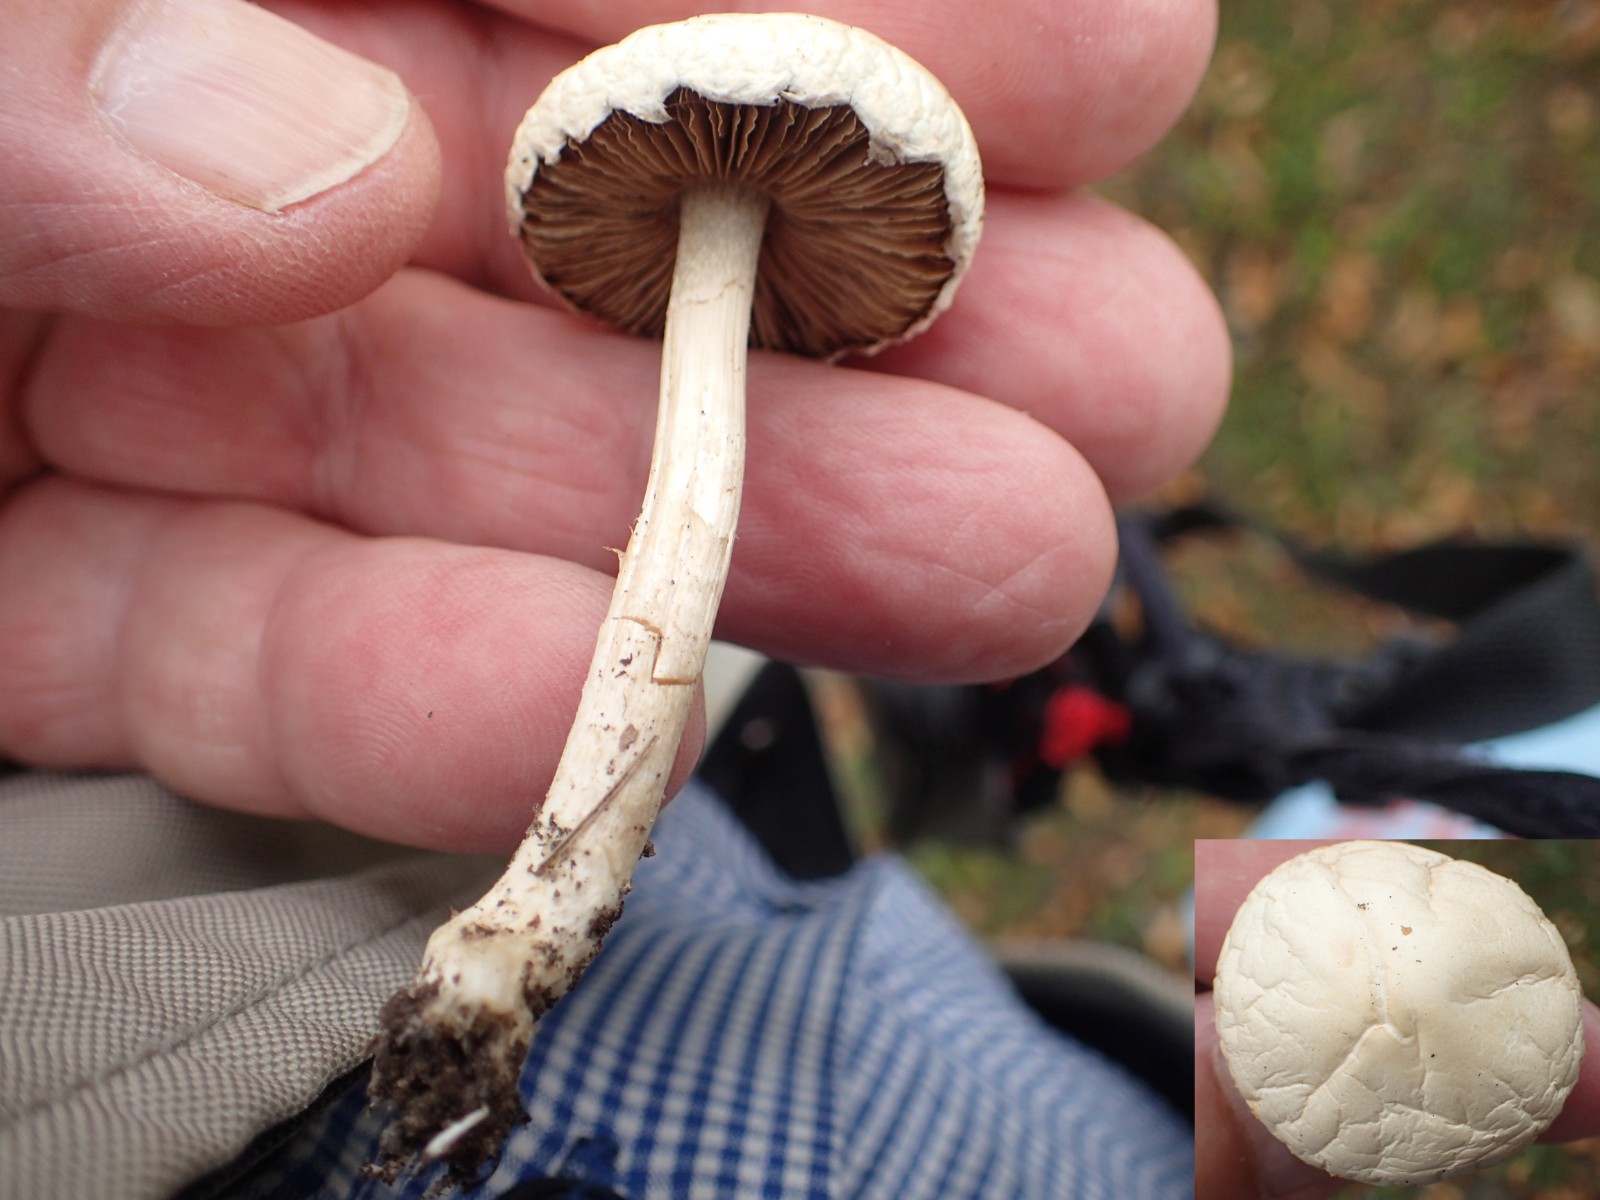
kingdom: Fungi
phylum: Basidiomycota
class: Agaricomycetes
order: Agaricales
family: Strophariaceae
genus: Agrocybe
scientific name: Agrocybe dura
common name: fastkødet agerhat
